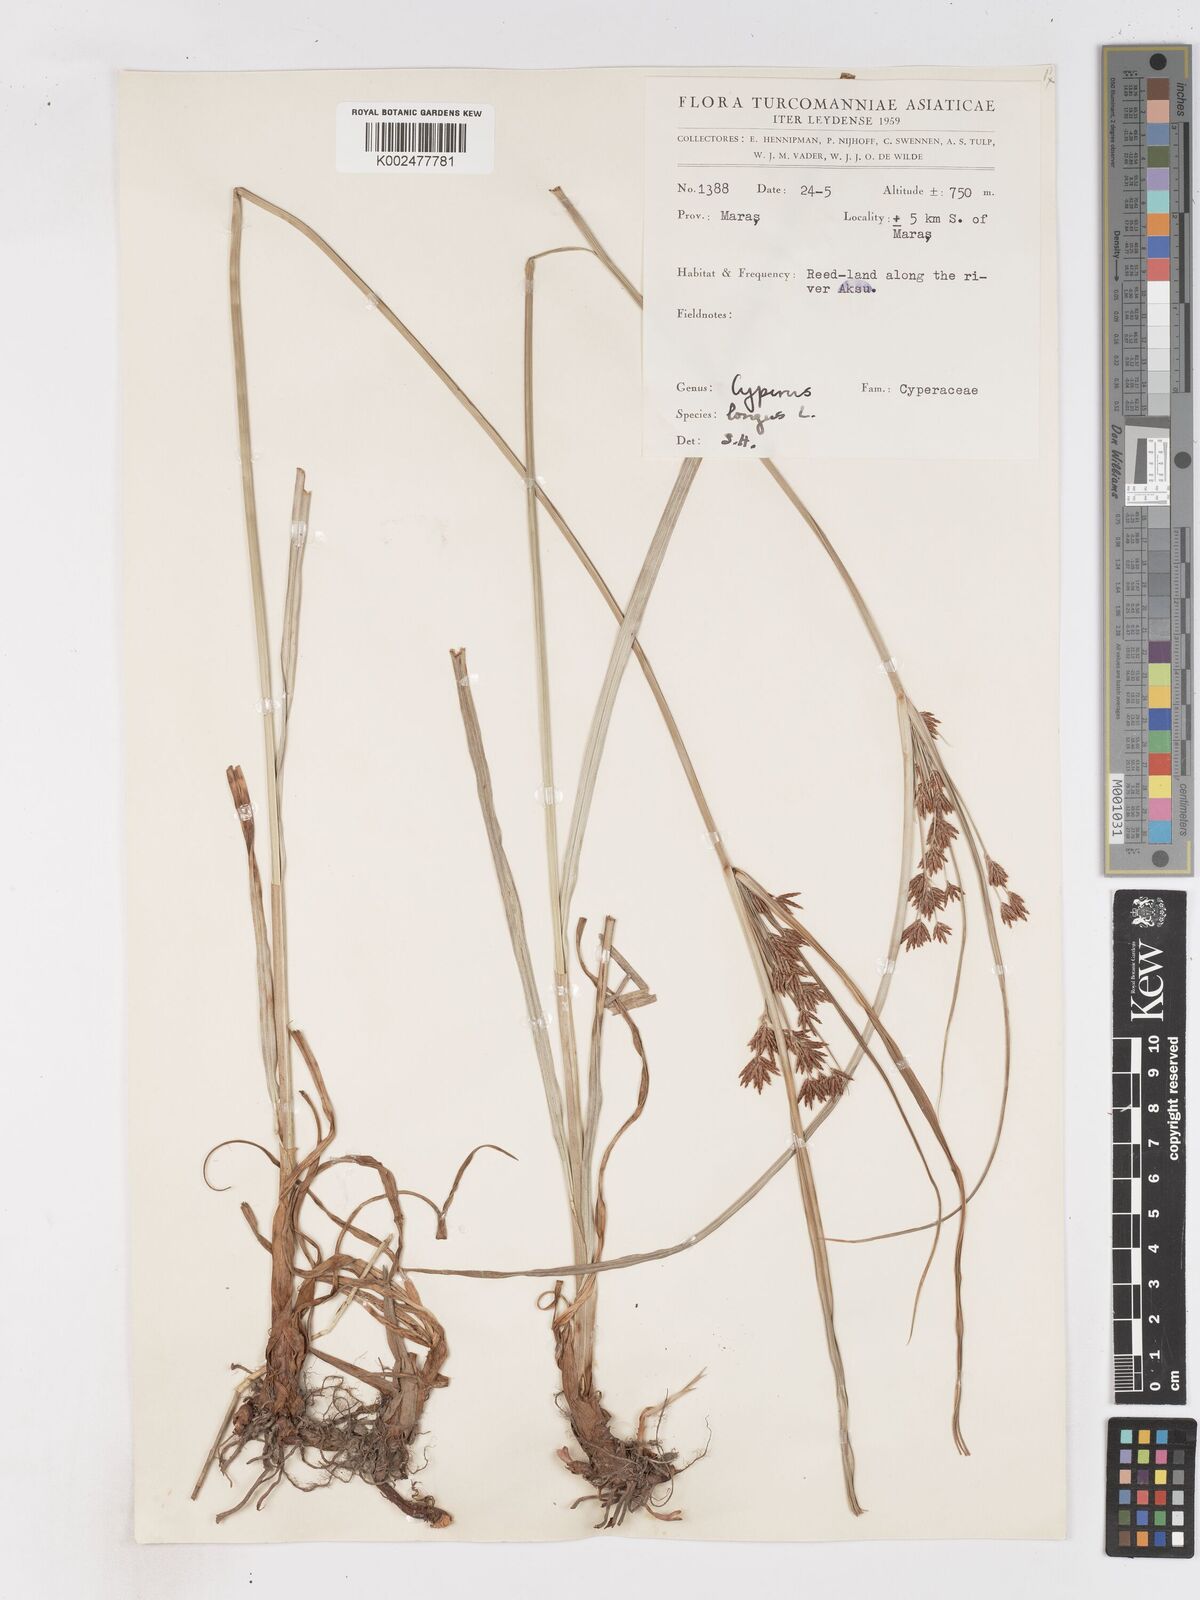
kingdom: Plantae
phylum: Tracheophyta
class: Liliopsida
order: Poales
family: Cyperaceae
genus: Cyperus
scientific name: Cyperus longus
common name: Galingale
